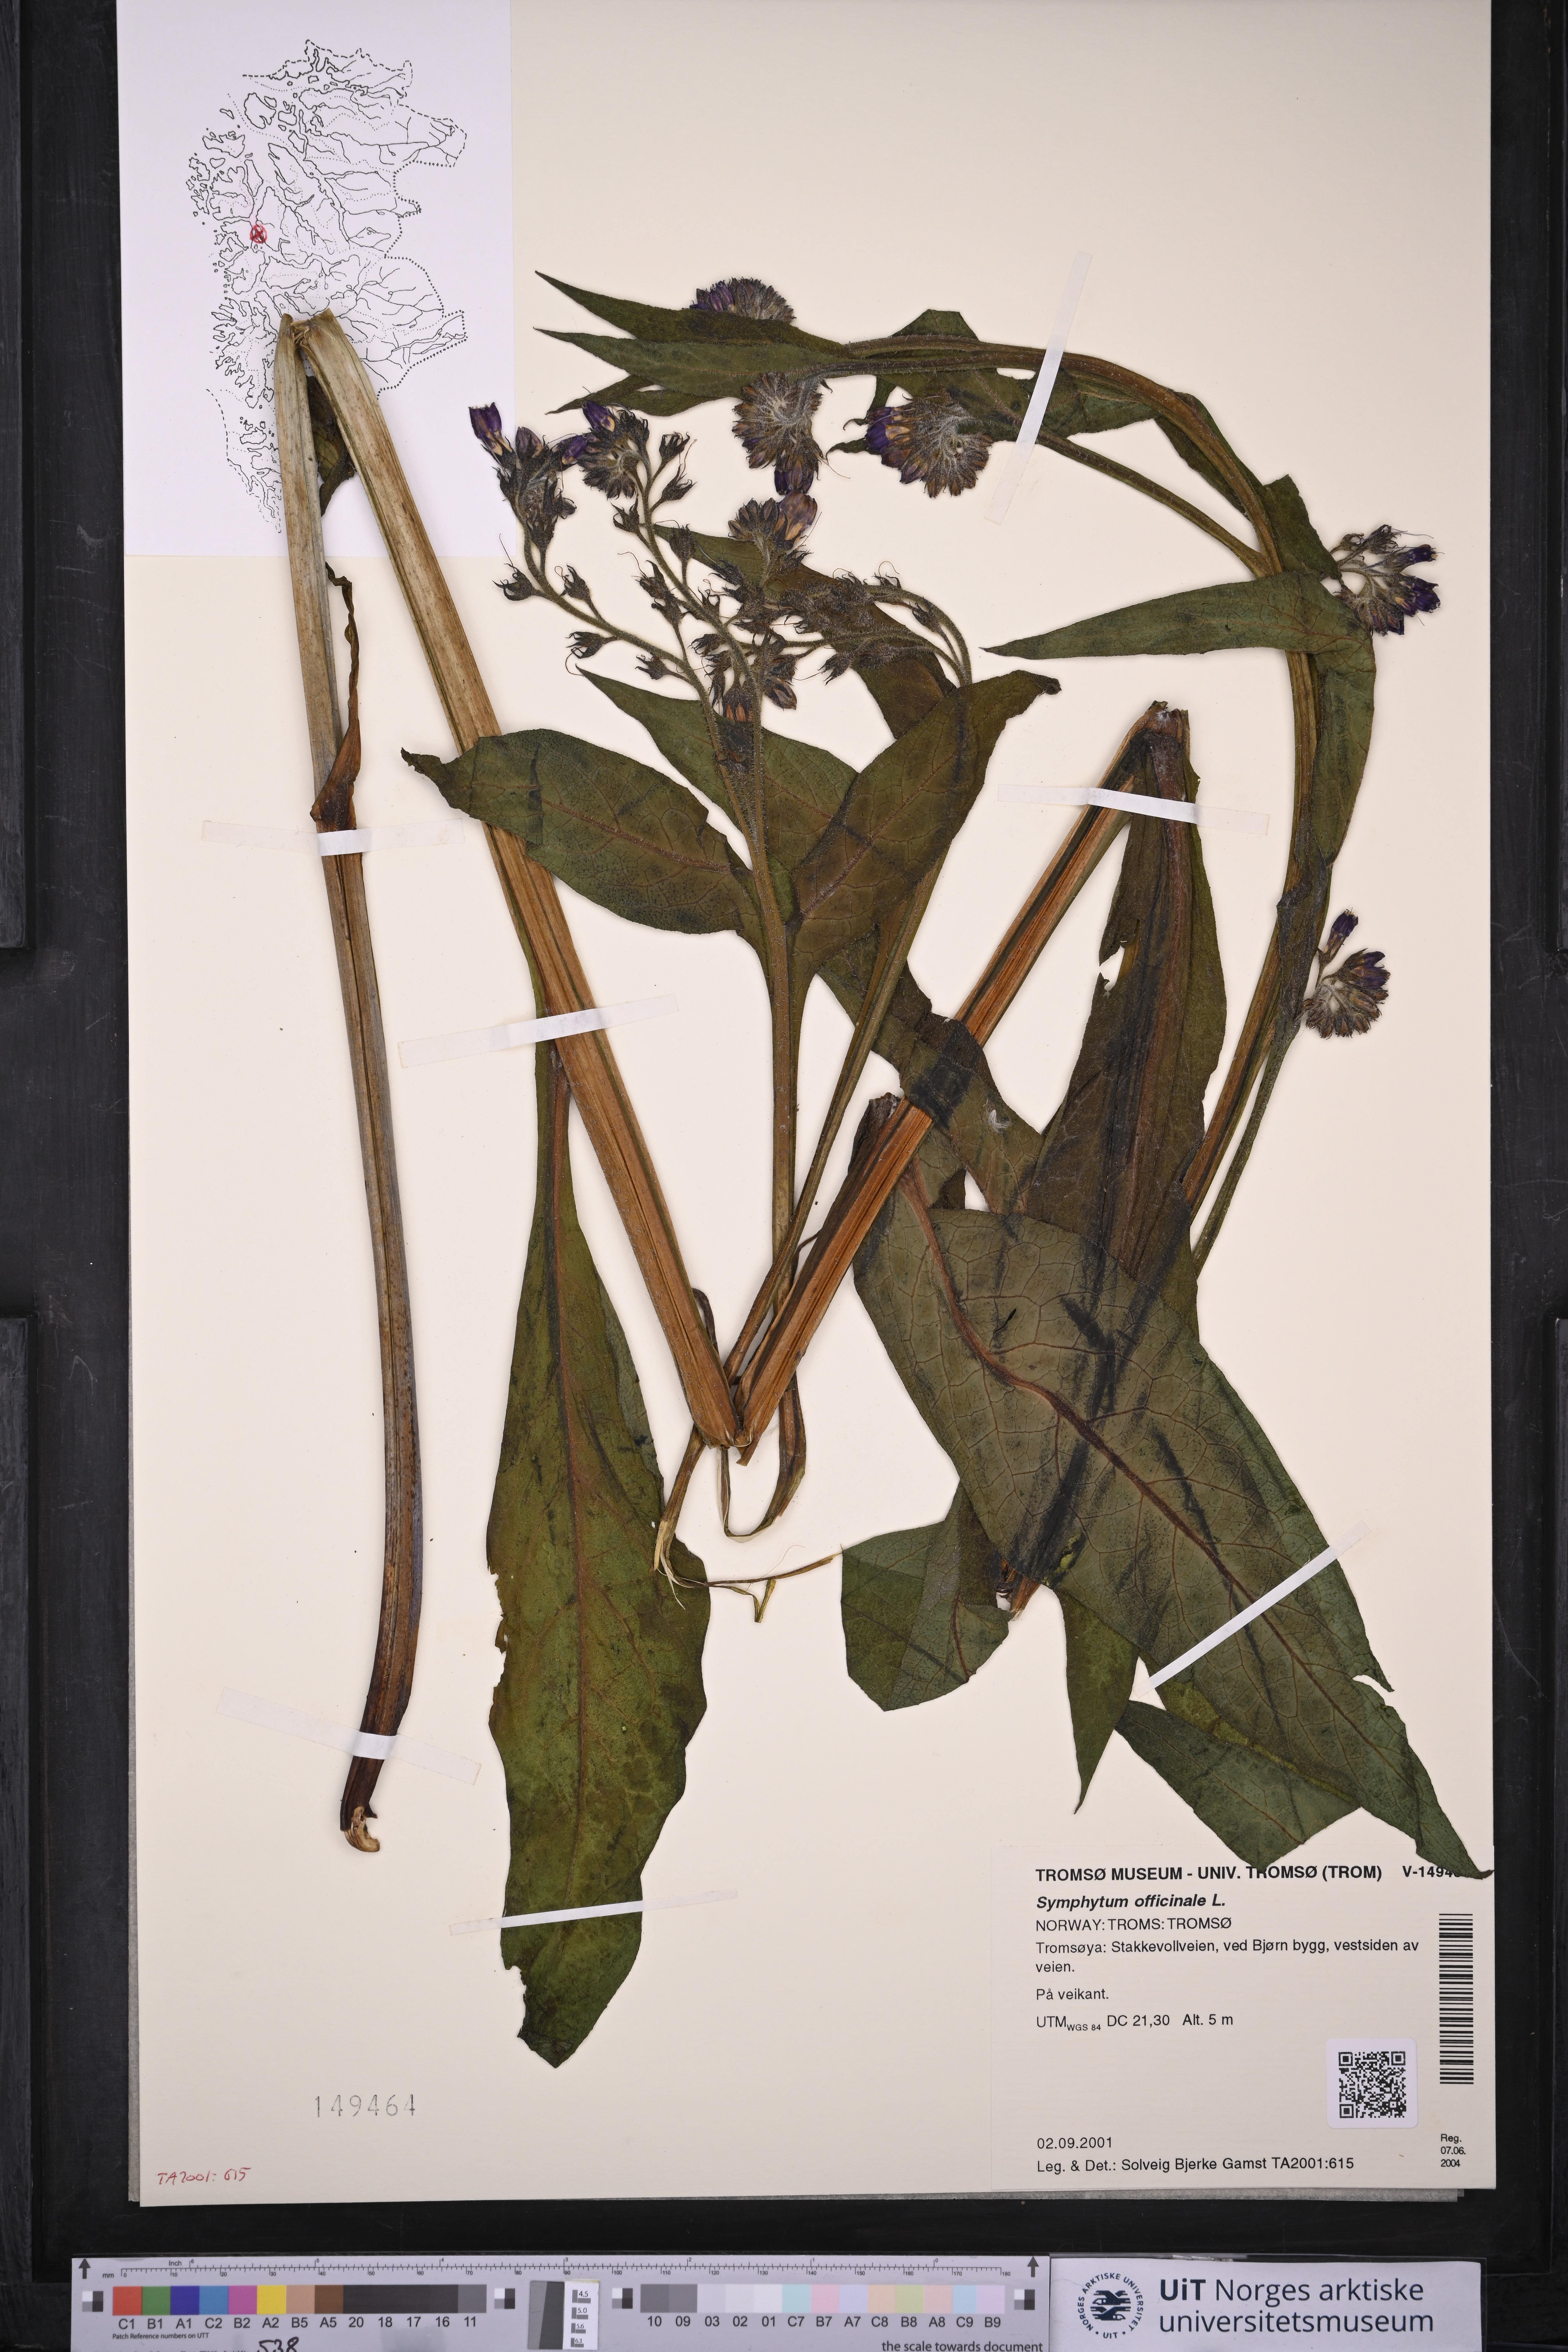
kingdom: Plantae
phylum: Tracheophyta
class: Magnoliopsida
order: Boraginales
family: Boraginaceae
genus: Symphytum
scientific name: Symphytum uplandicum
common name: Russian comfrey
